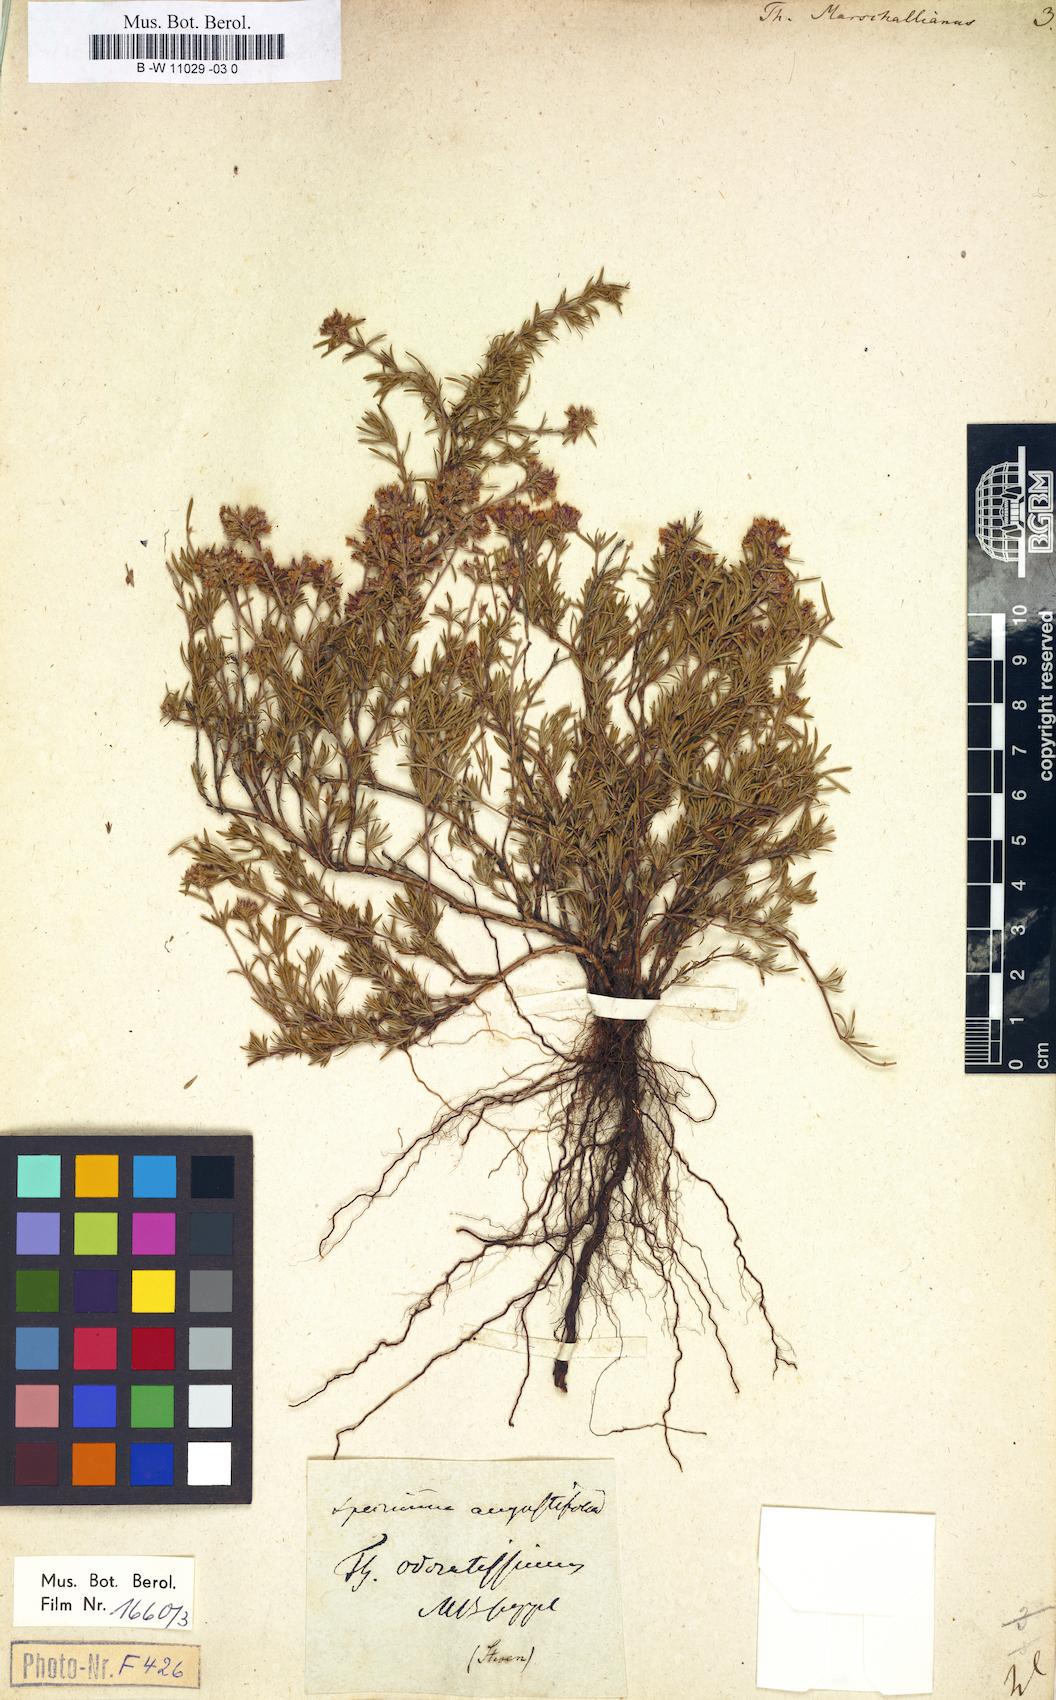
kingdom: Plantae
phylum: Tracheophyta
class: Magnoliopsida
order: Lamiales
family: Lamiaceae
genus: Thymus
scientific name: Thymus marschallianus
